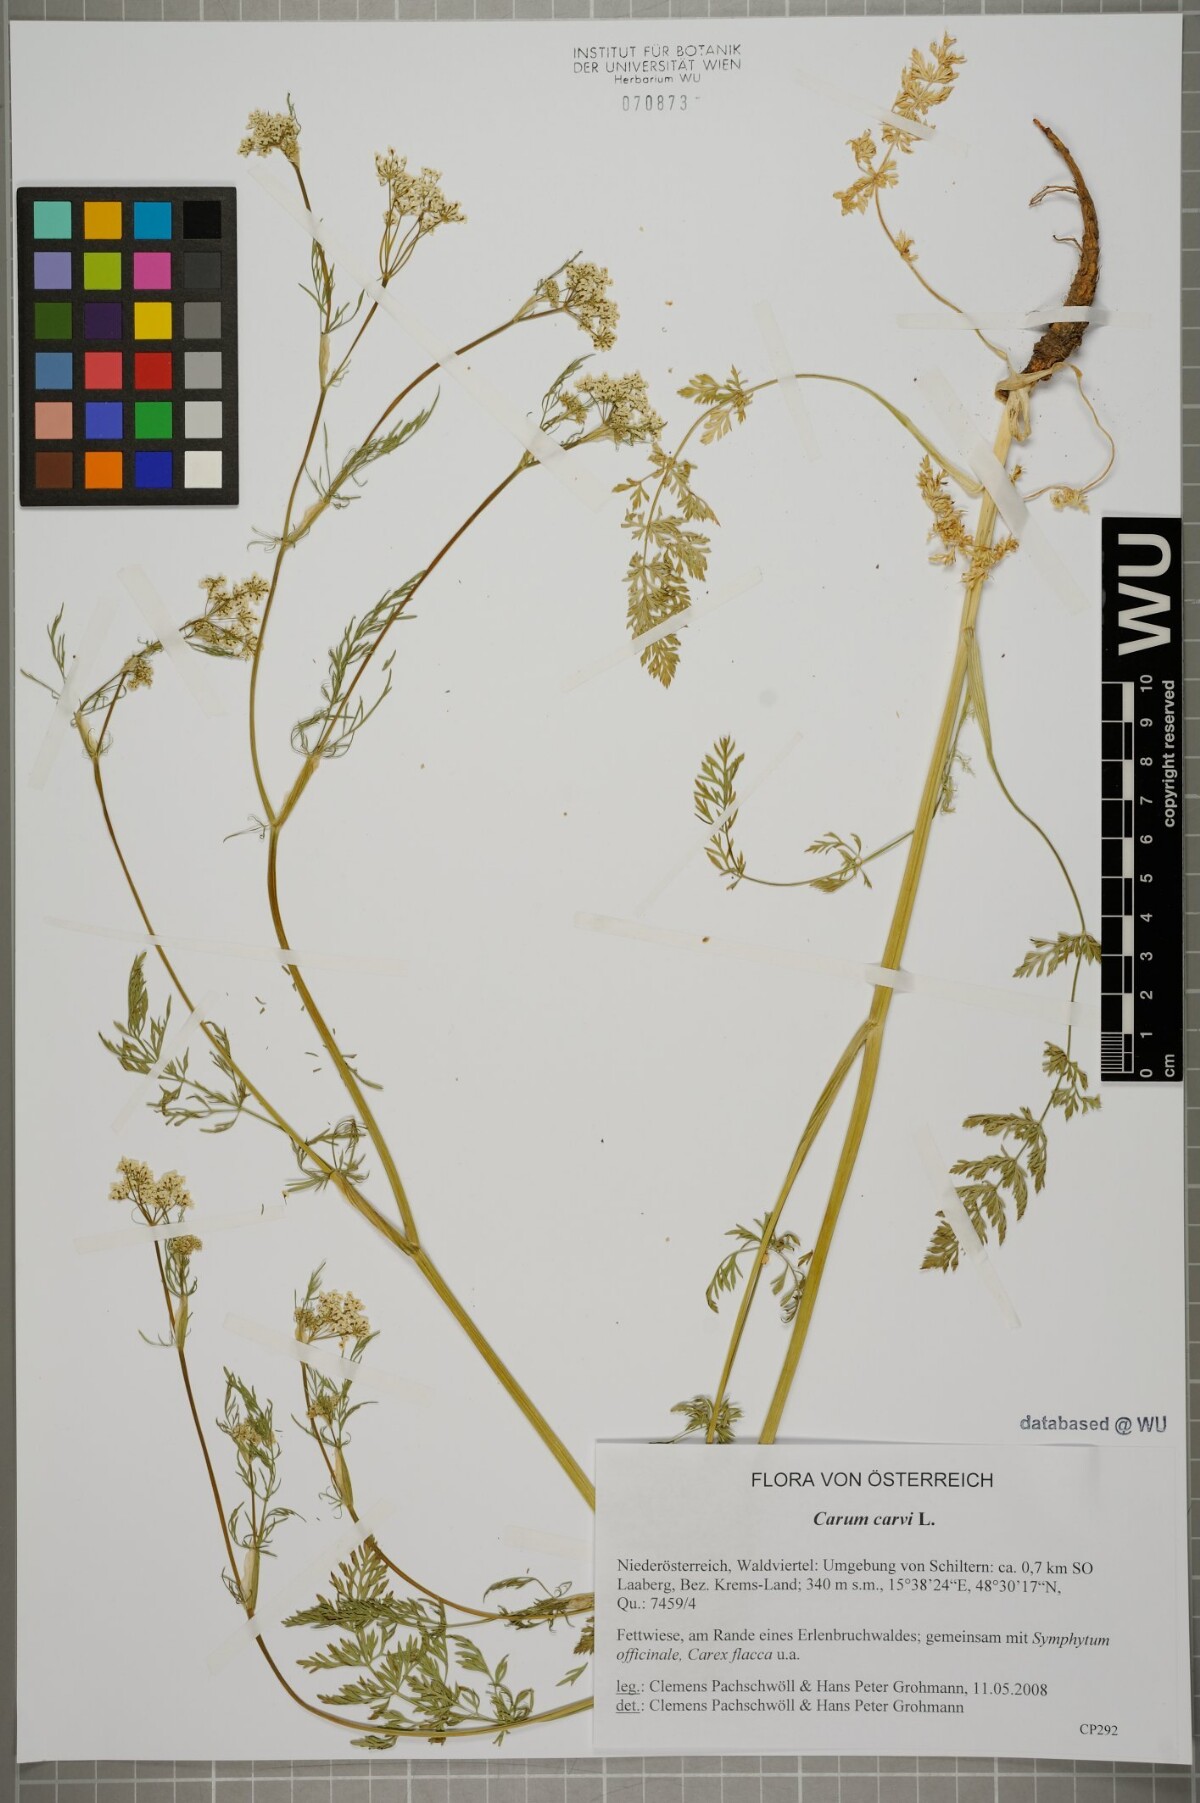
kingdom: Plantae
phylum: Tracheophyta
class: Magnoliopsida
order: Apiales
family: Apiaceae
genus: Carum
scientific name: Carum carvi
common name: Caraway
